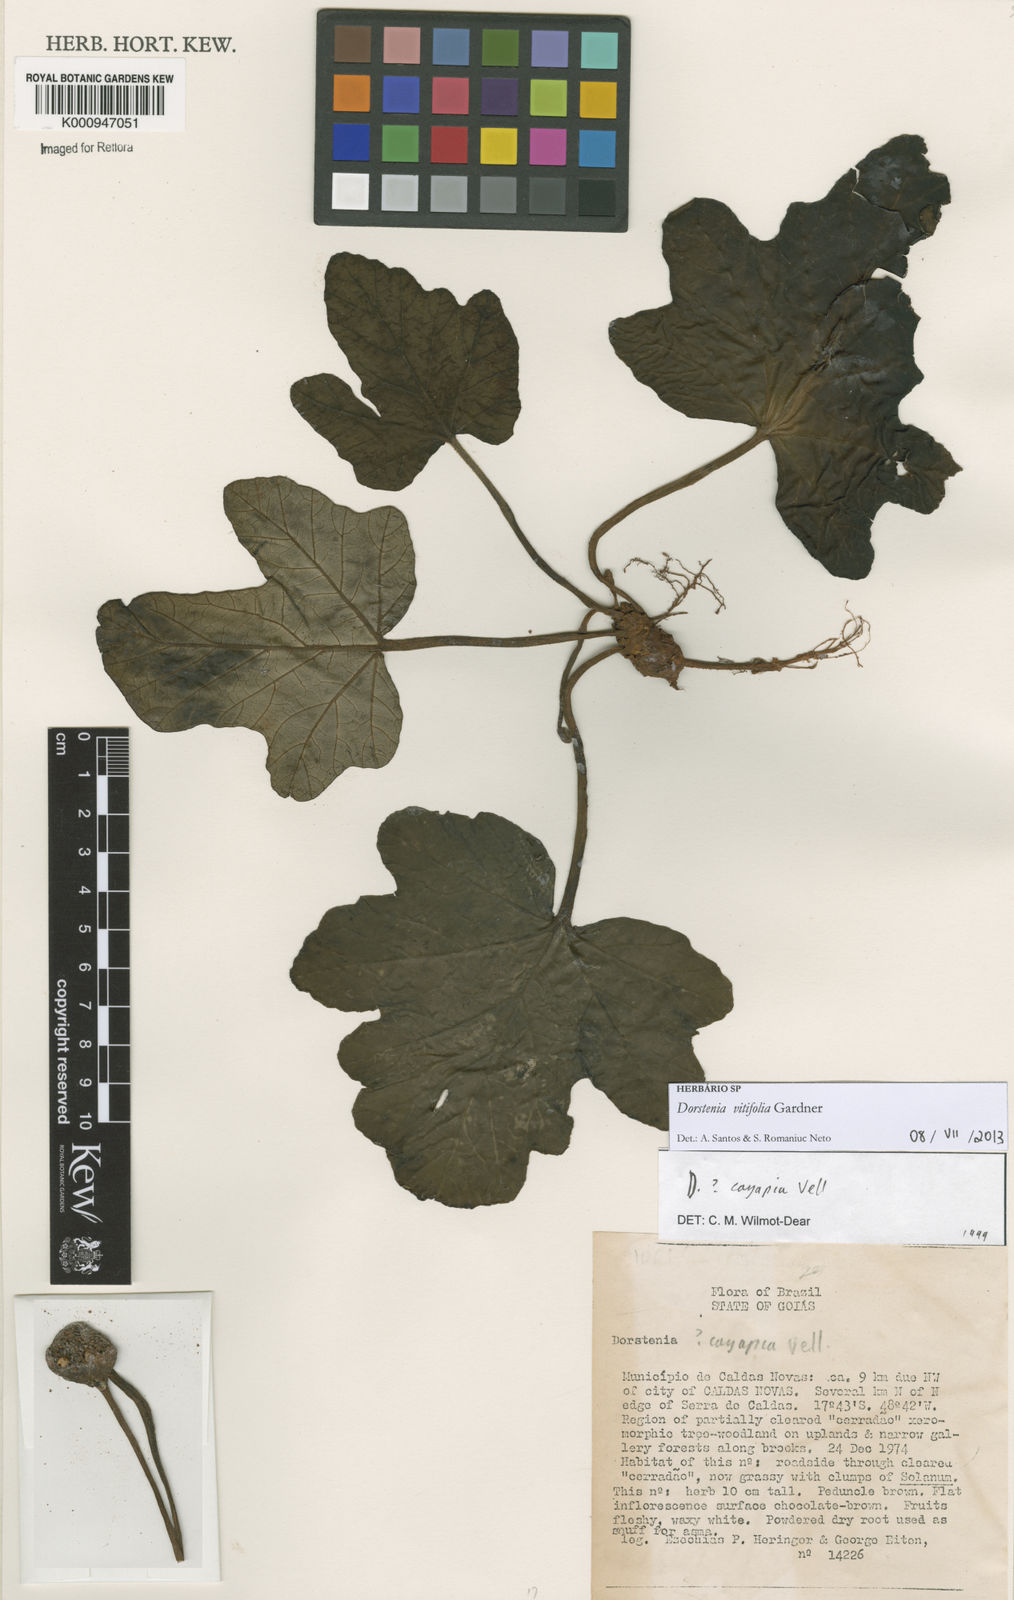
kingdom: Plantae
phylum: Tracheophyta
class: Magnoliopsida
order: Rosales
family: Moraceae
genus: Dorstenia
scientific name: Dorstenia cayapia
